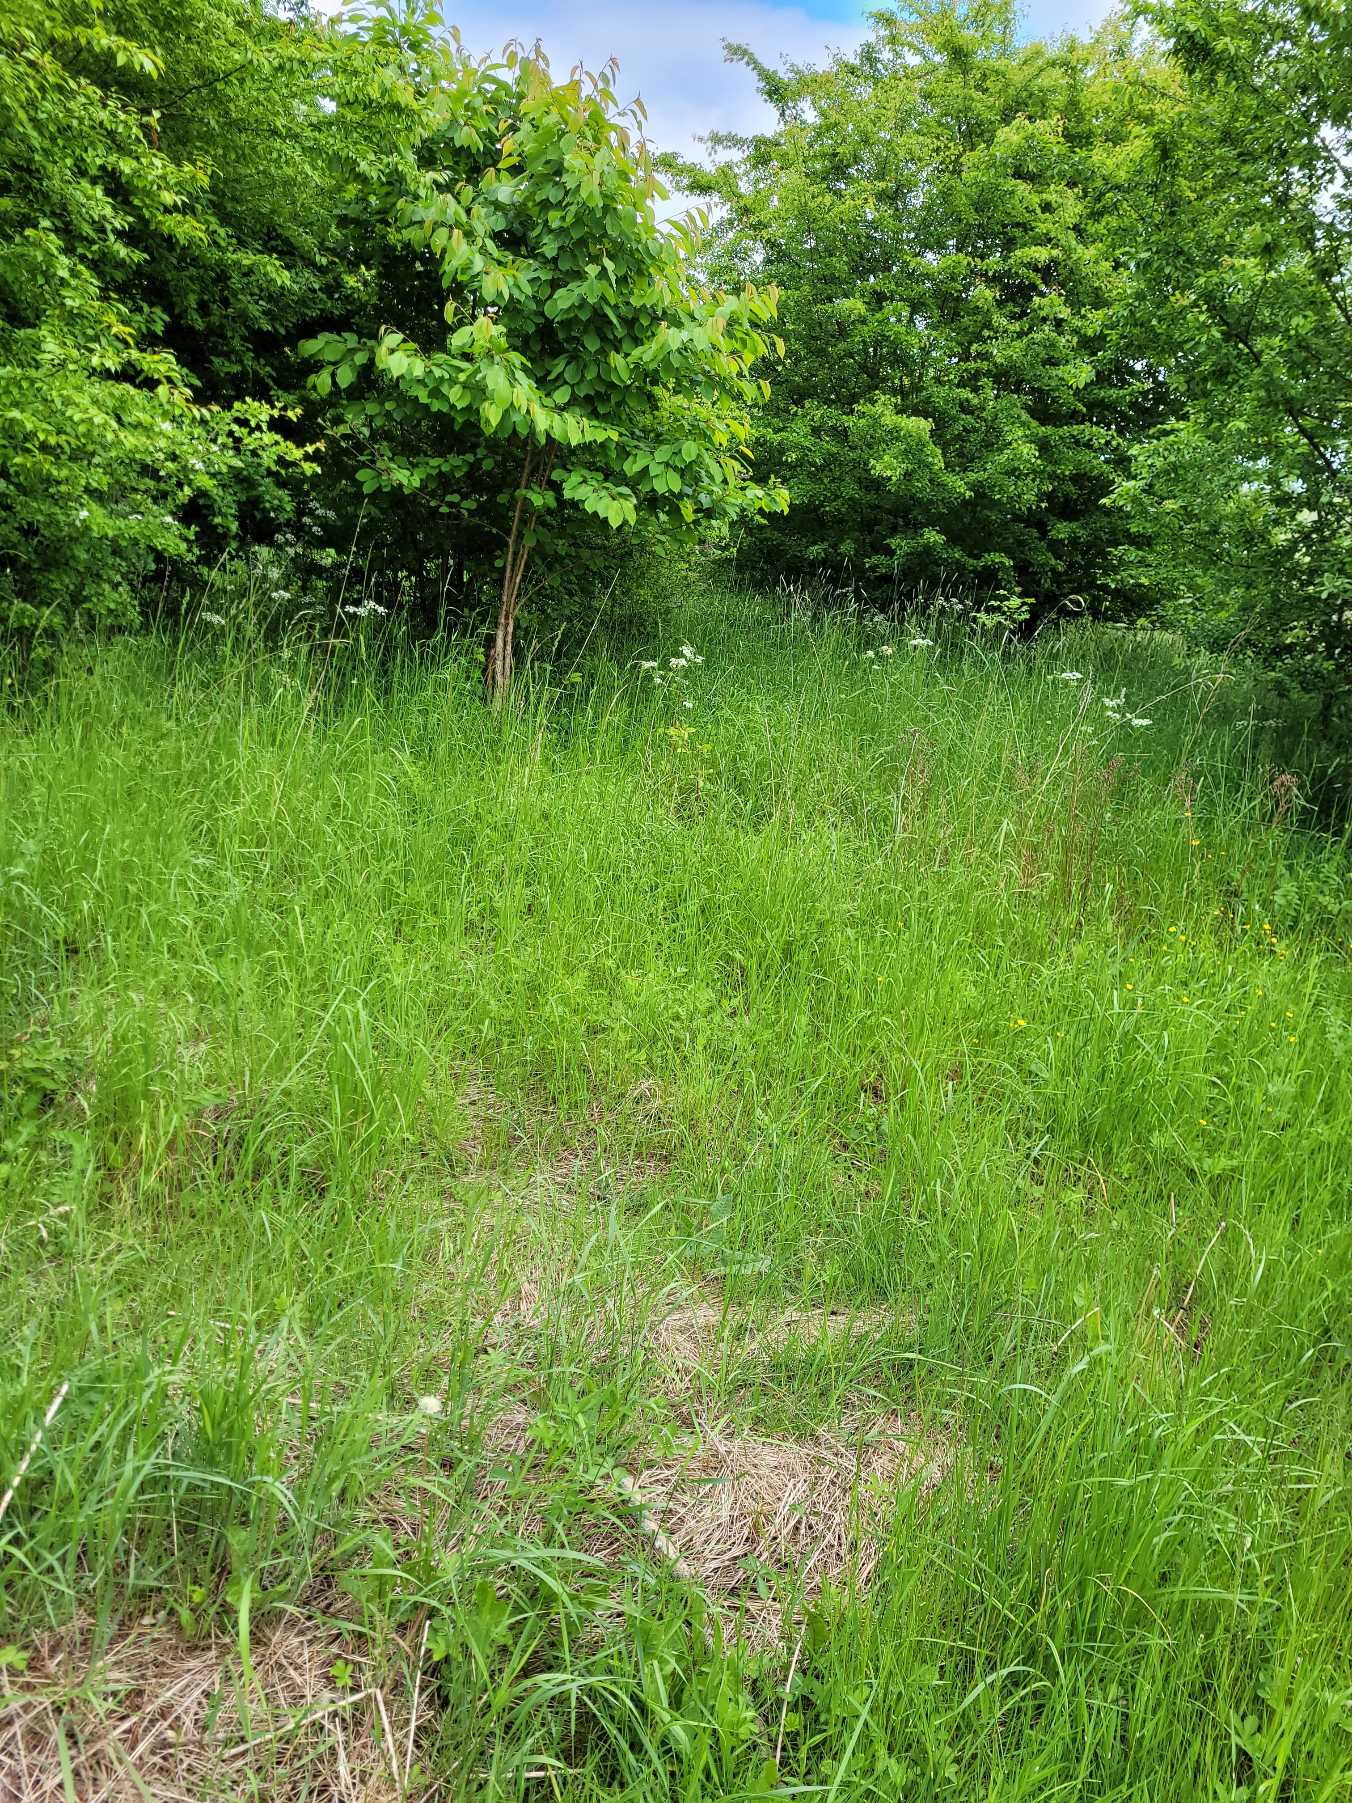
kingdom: Animalia
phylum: Arthropoda
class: Insecta
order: Lepidoptera
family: Pieridae
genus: Anthocharis
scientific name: Anthocharis cardamines
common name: Aurora
